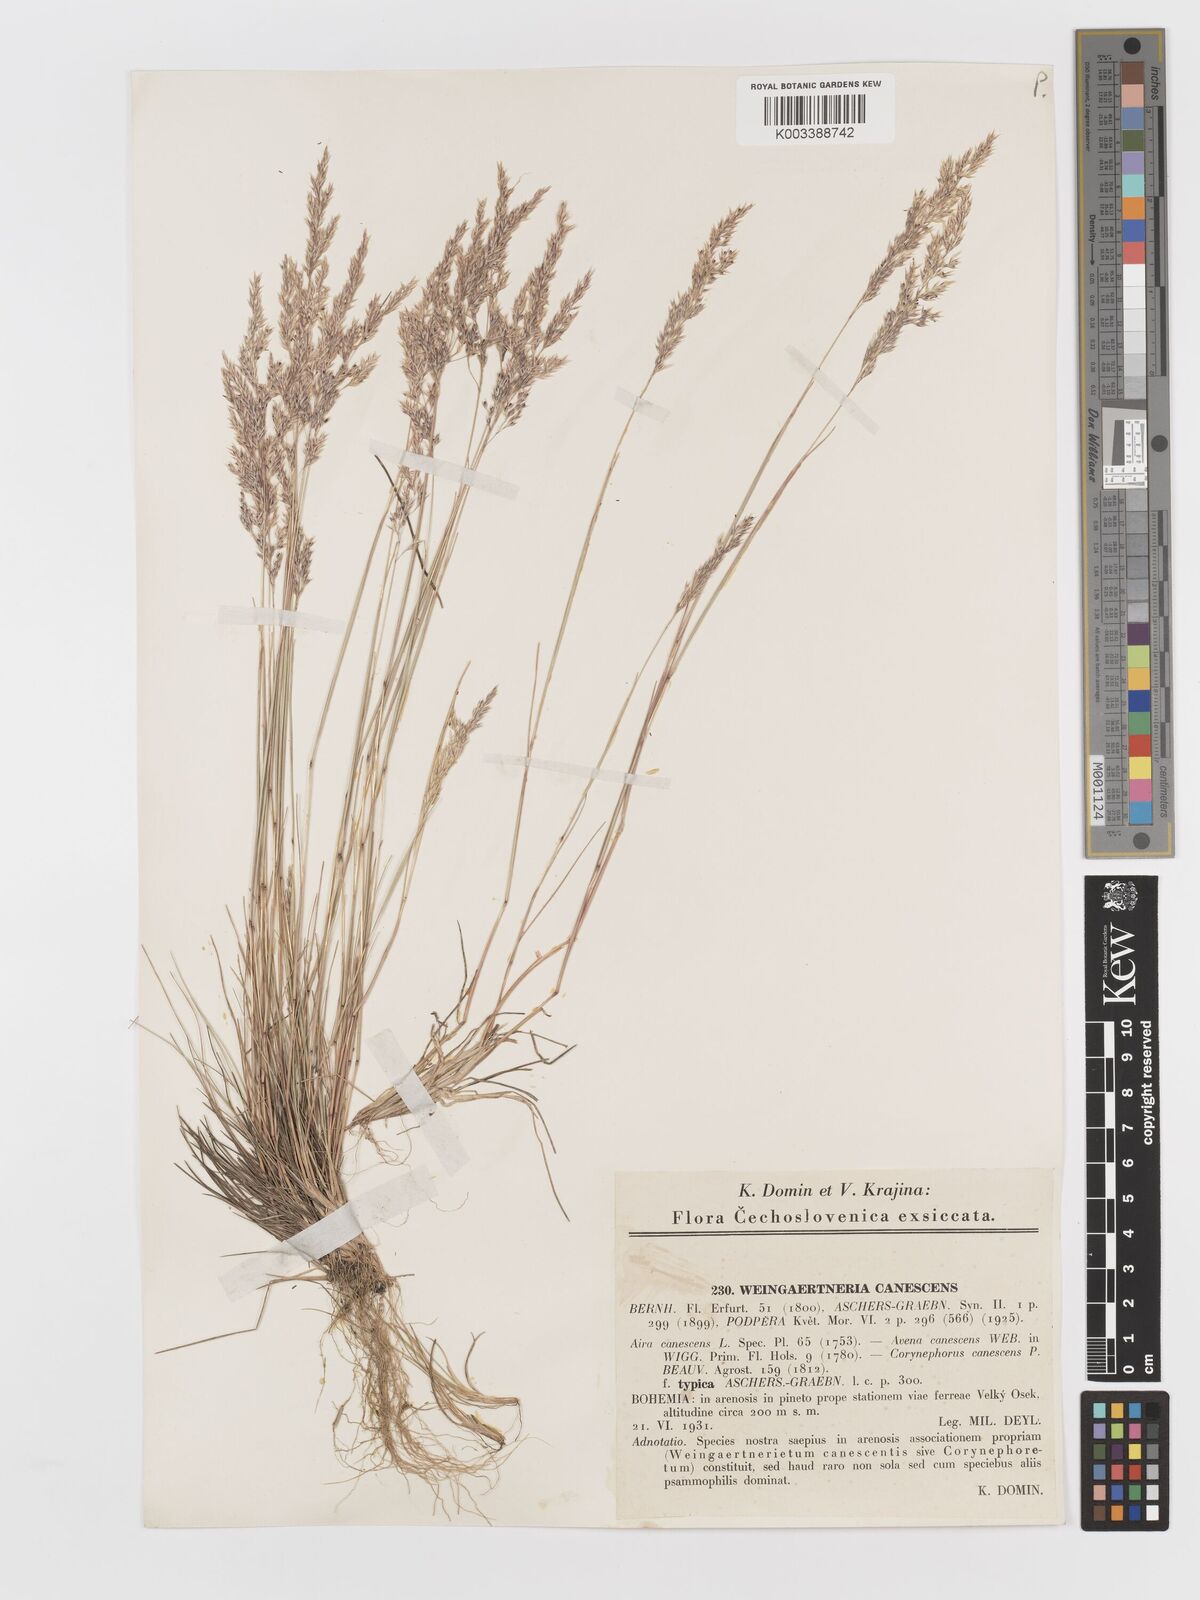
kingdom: Plantae
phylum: Tracheophyta
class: Liliopsida
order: Poales
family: Poaceae
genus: Corynephorus
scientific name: Corynephorus canescens
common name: Grey hair-grass
